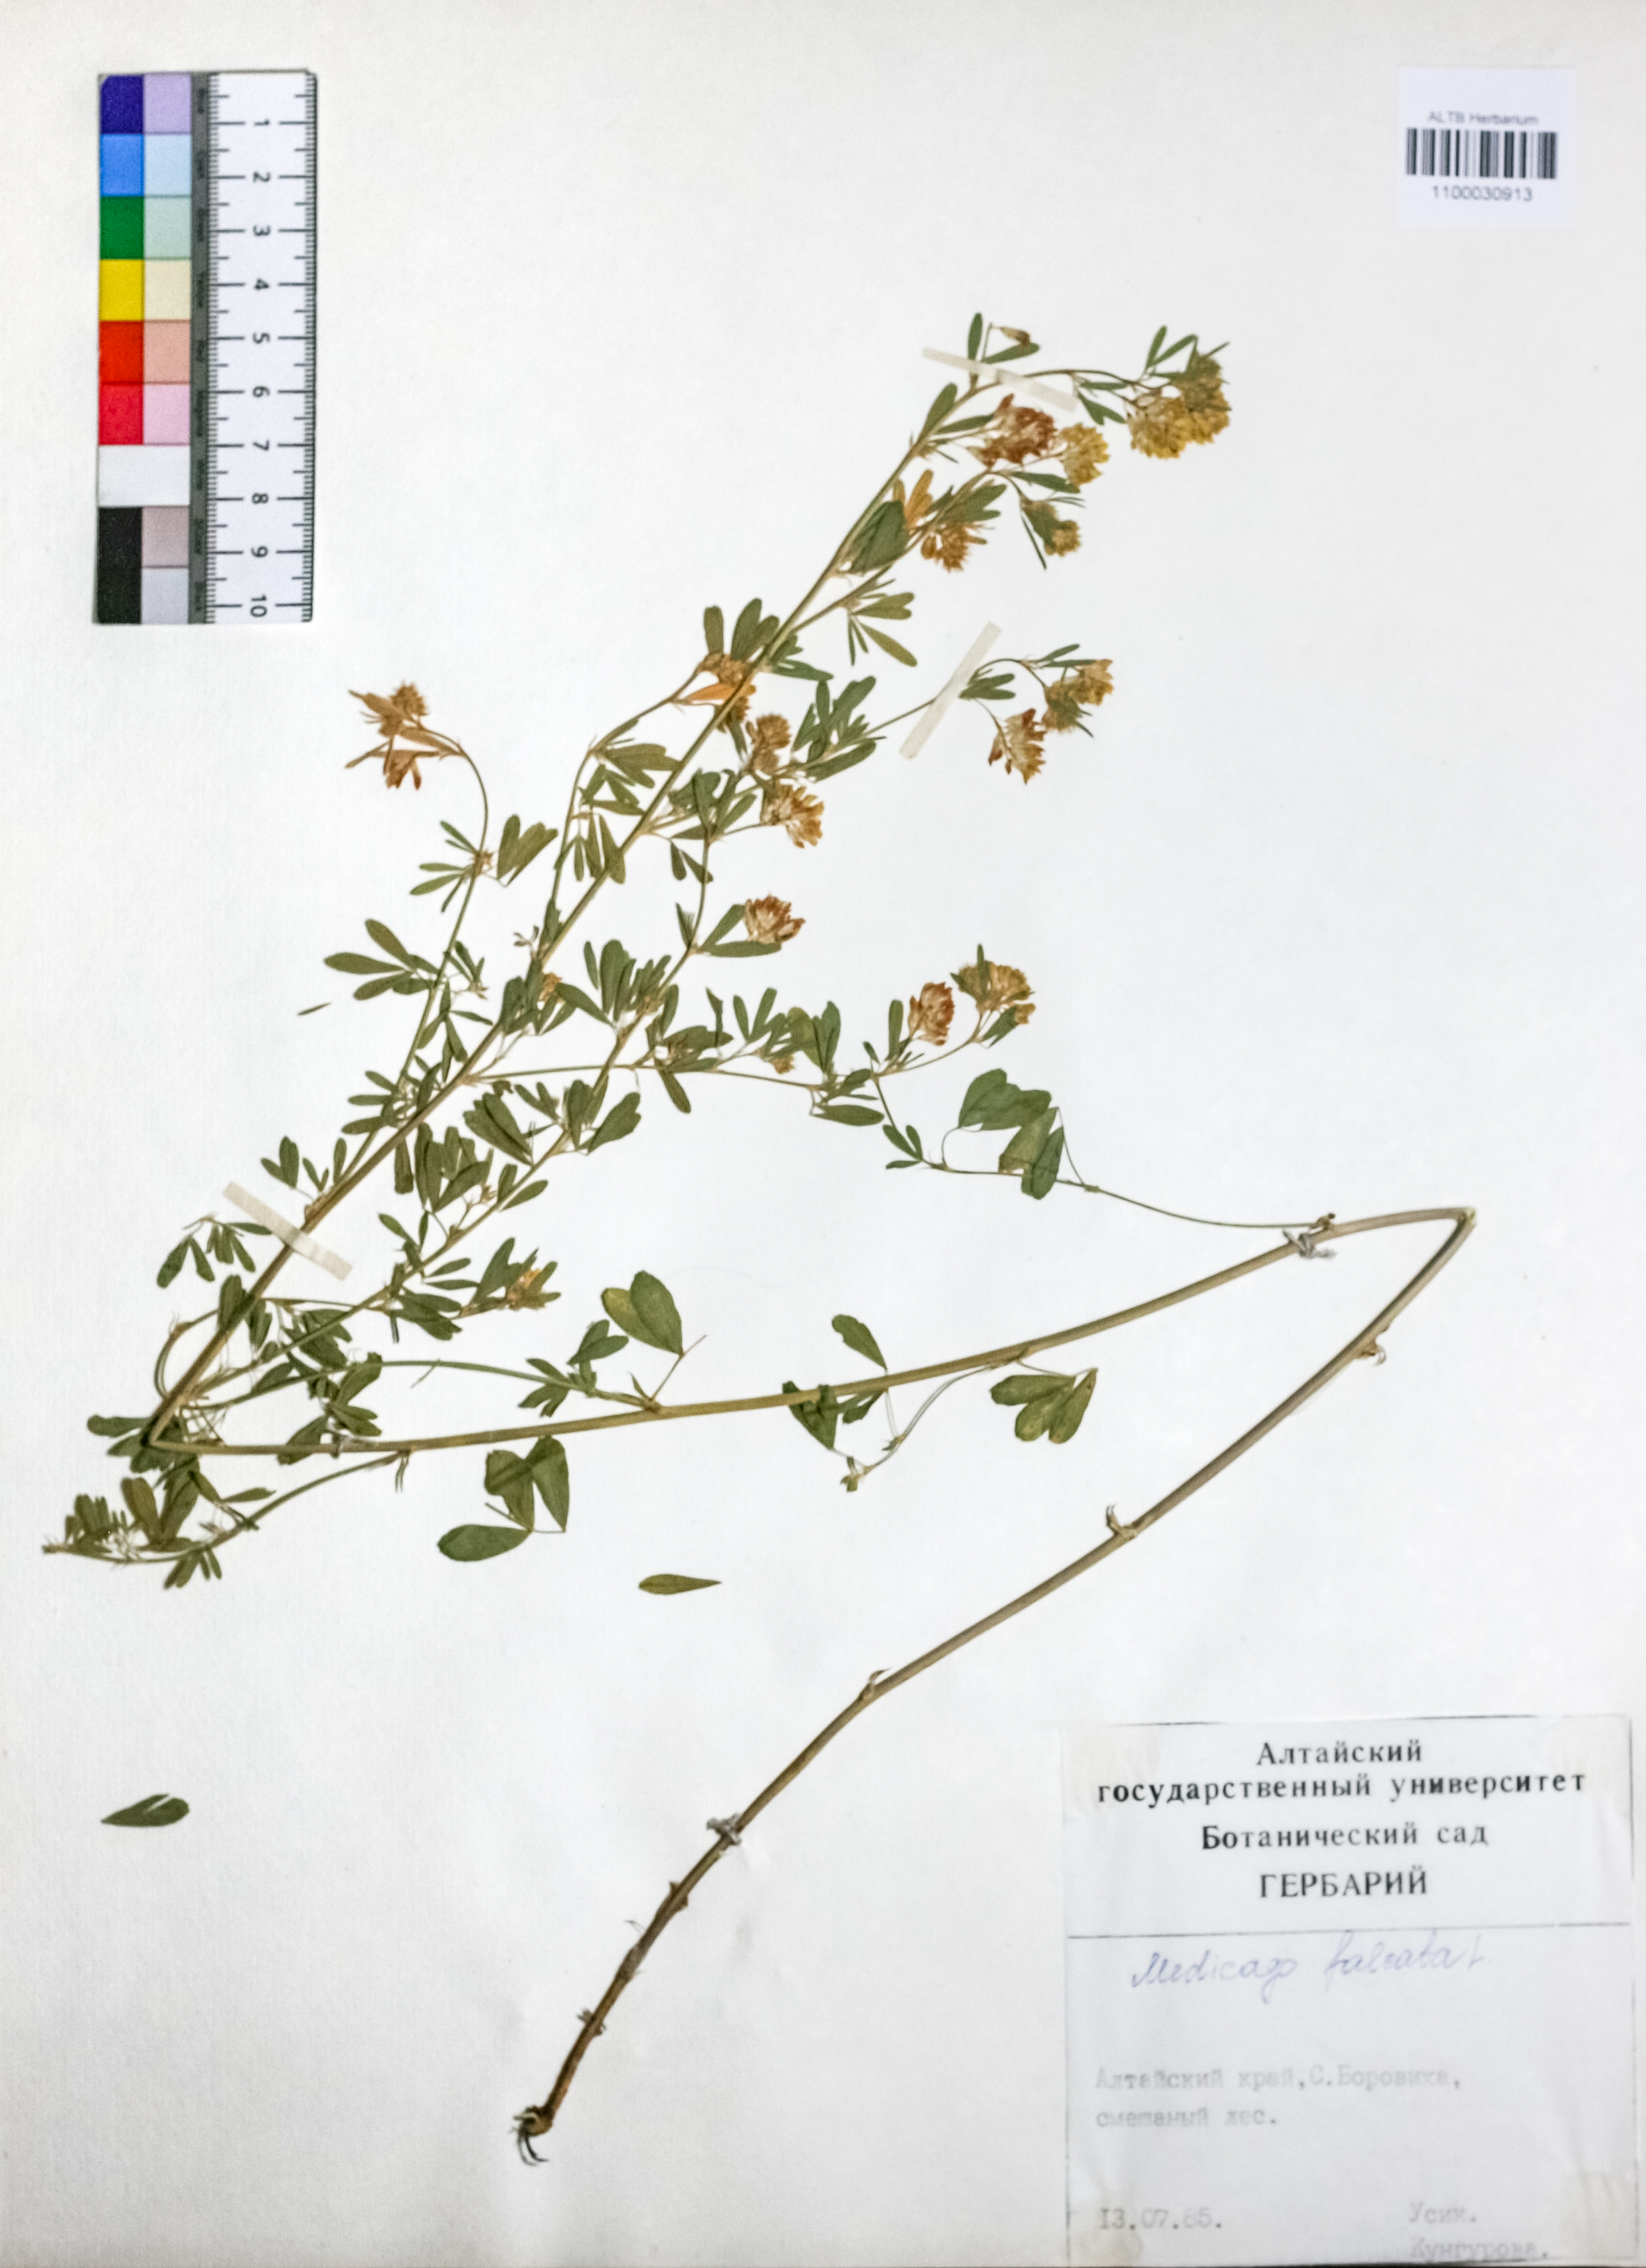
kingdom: Plantae
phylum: Tracheophyta
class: Magnoliopsida
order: Fabales
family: Fabaceae
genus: Medicago
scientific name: Medicago falcata
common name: Sickle medick
